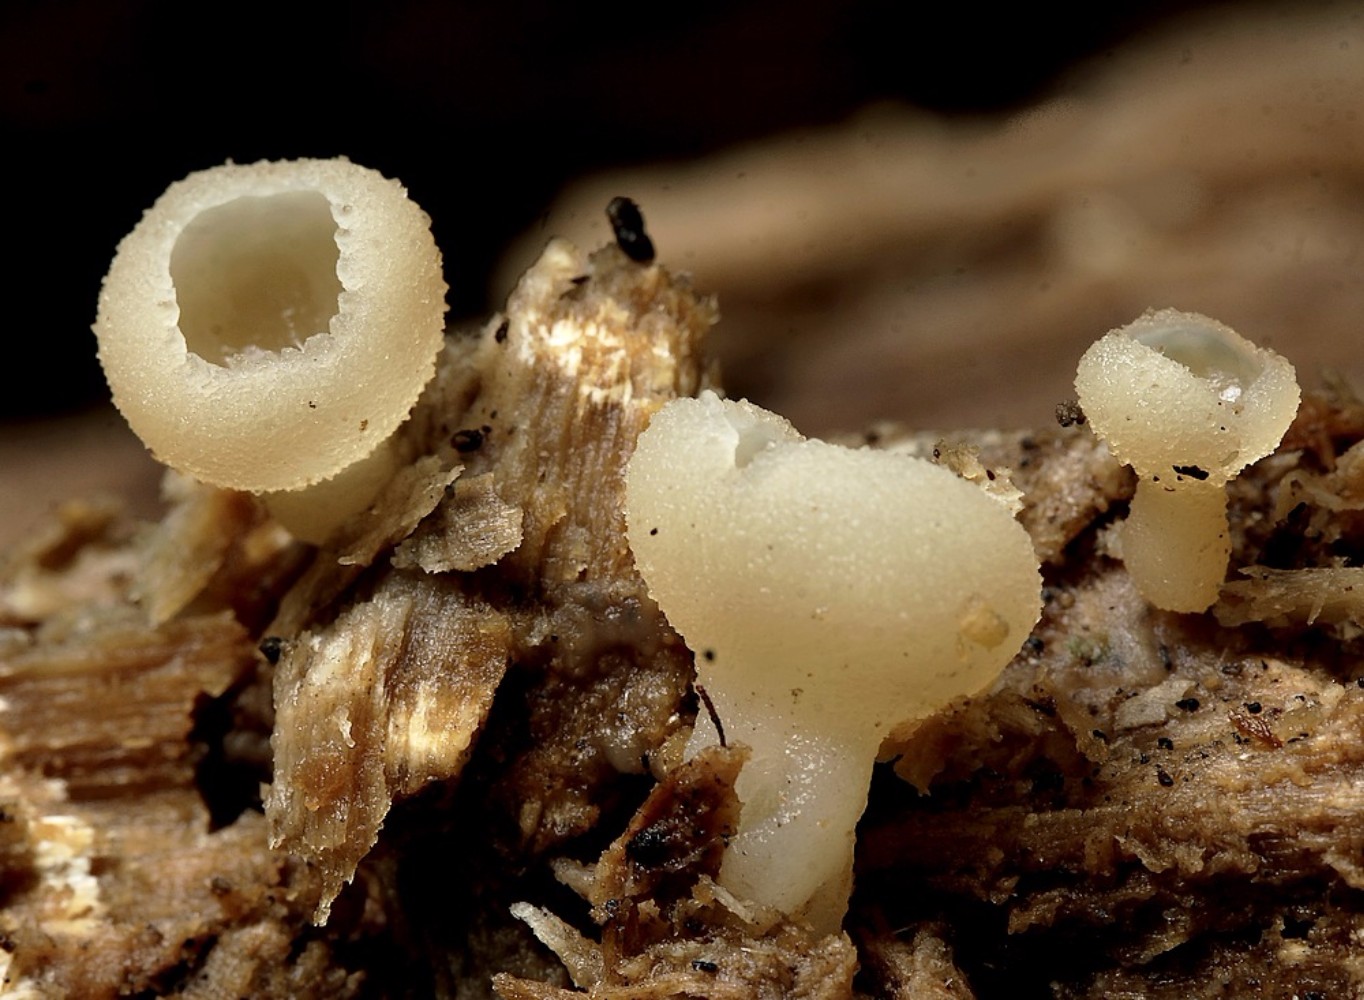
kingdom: Fungi
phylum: Ascomycota
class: Pezizomycetes
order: Pezizales
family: Pezizaceae
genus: Peziza
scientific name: Peziza varia
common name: Ved-bægersvamp
